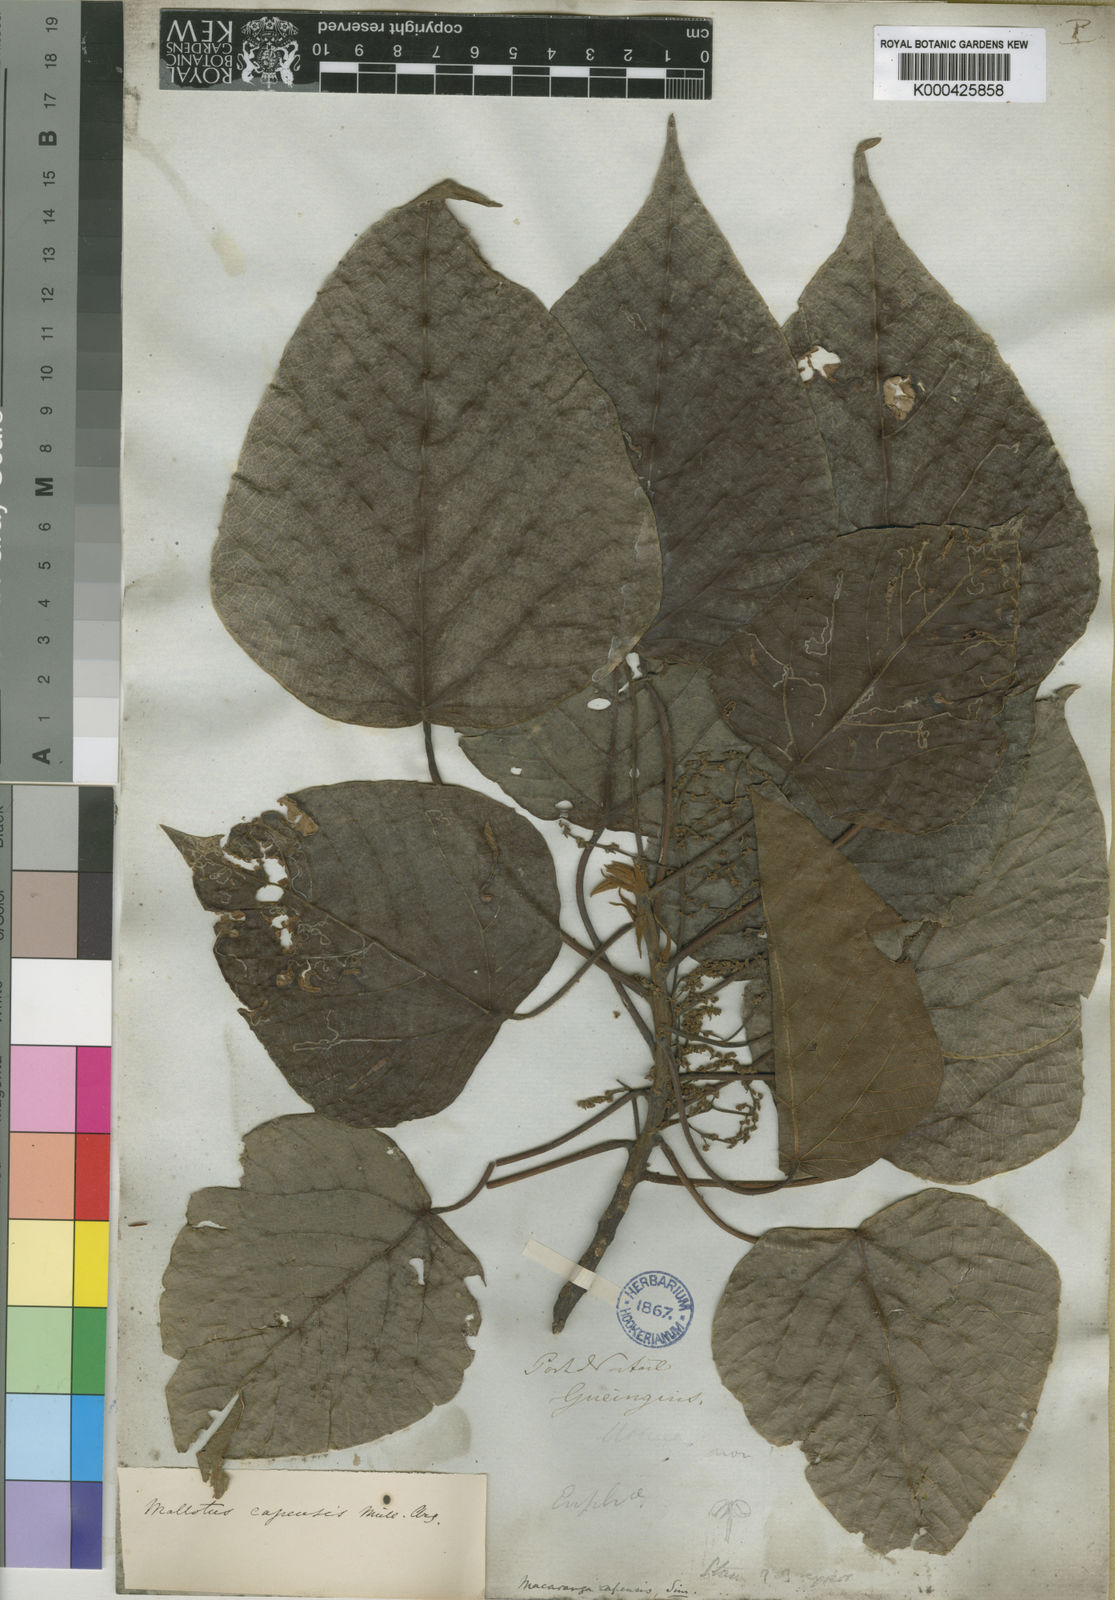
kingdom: Plantae
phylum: Tracheophyta
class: Magnoliopsida
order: Malpighiales
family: Euphorbiaceae
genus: Macaranga
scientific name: Macaranga capensis
